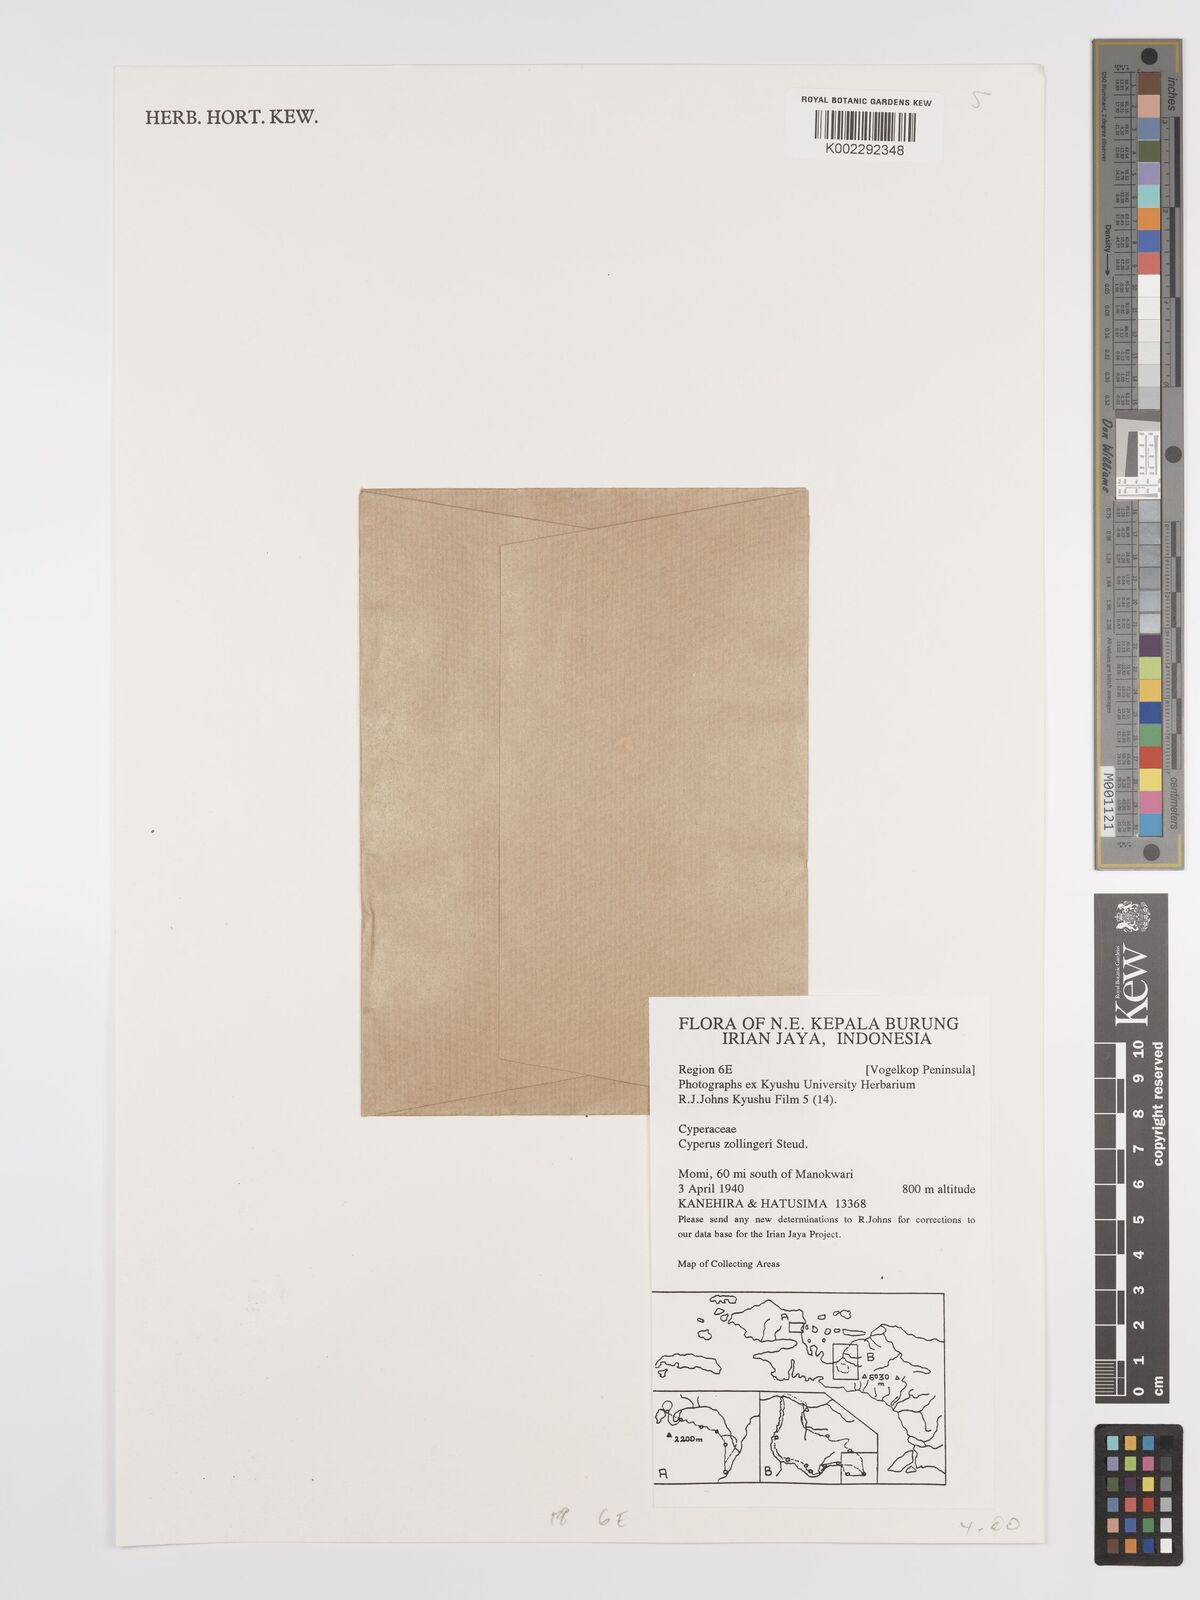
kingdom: Plantae
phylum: Tracheophyta
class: Liliopsida
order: Poales
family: Cyperaceae
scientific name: Cyperaceae
